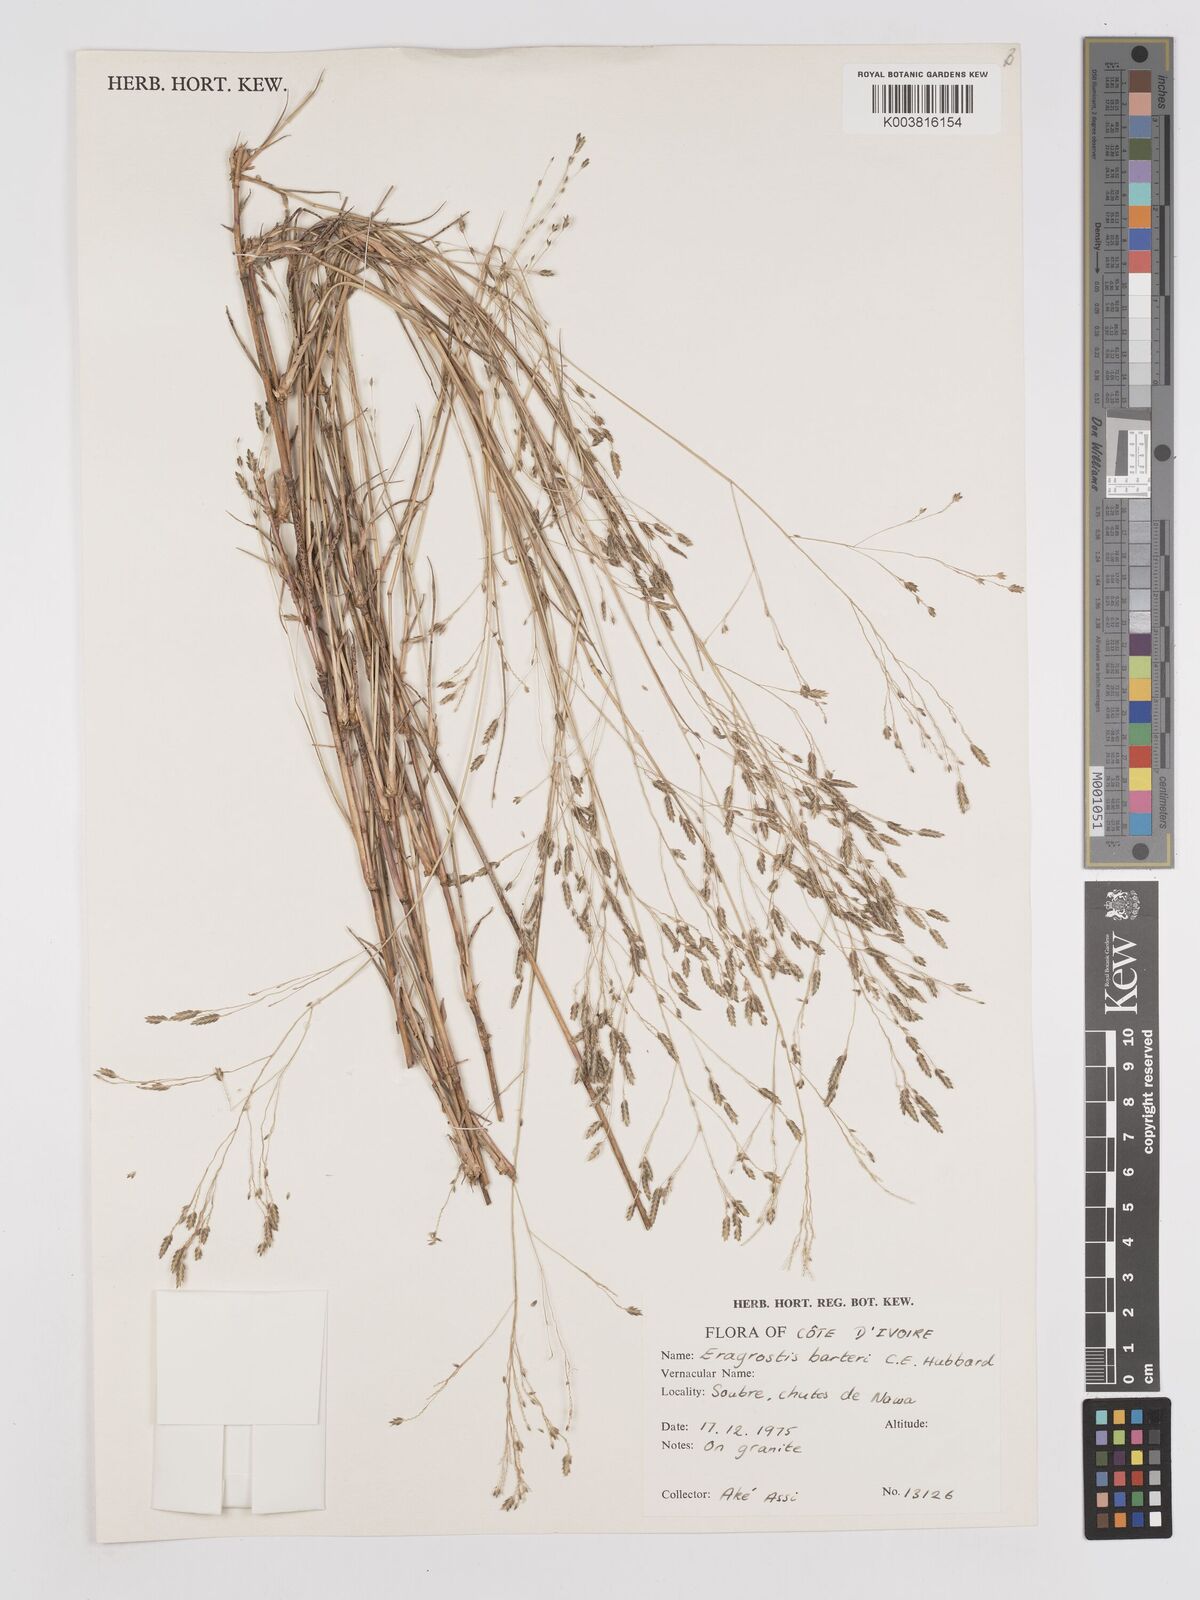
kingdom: Plantae
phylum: Tracheophyta
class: Liliopsida
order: Poales
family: Poaceae
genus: Eragrostis
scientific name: Eragrostis barteri
